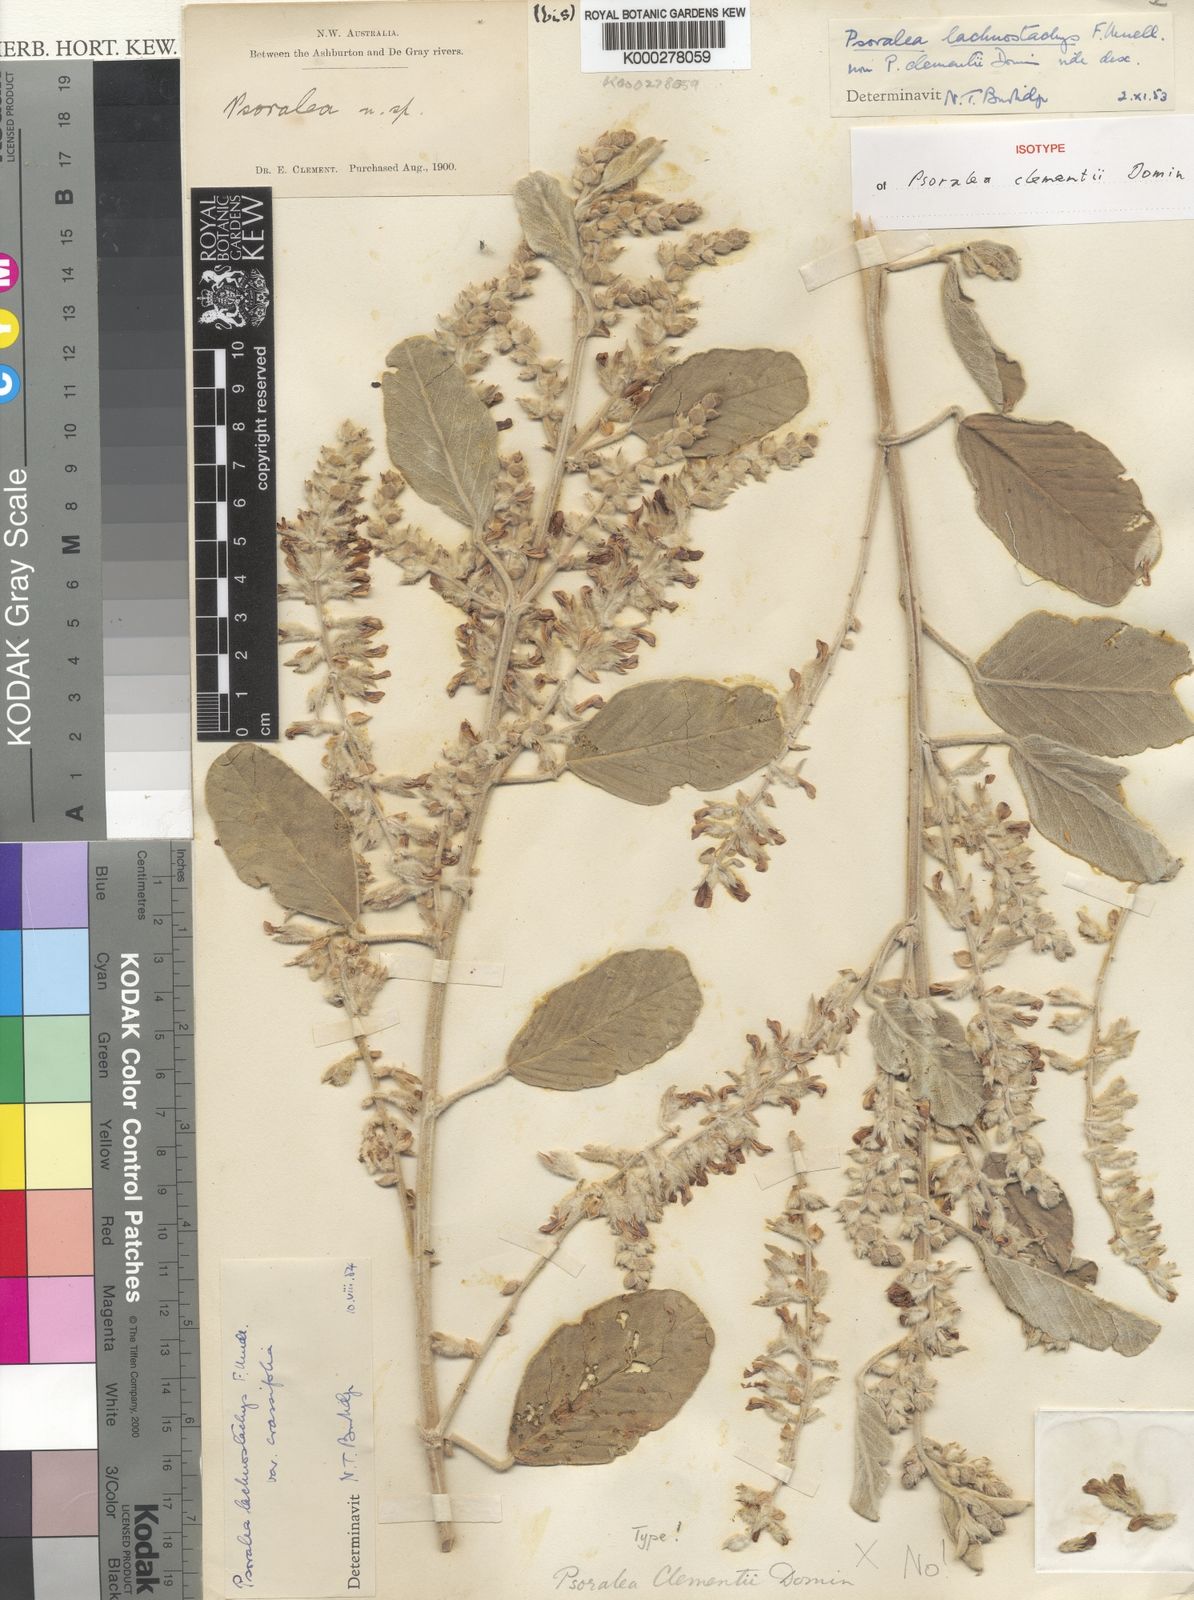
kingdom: Plantae
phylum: Tracheophyta
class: Magnoliopsida
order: Fabales
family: Fabaceae
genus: Cullen
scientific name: Cullen lachnostachys
